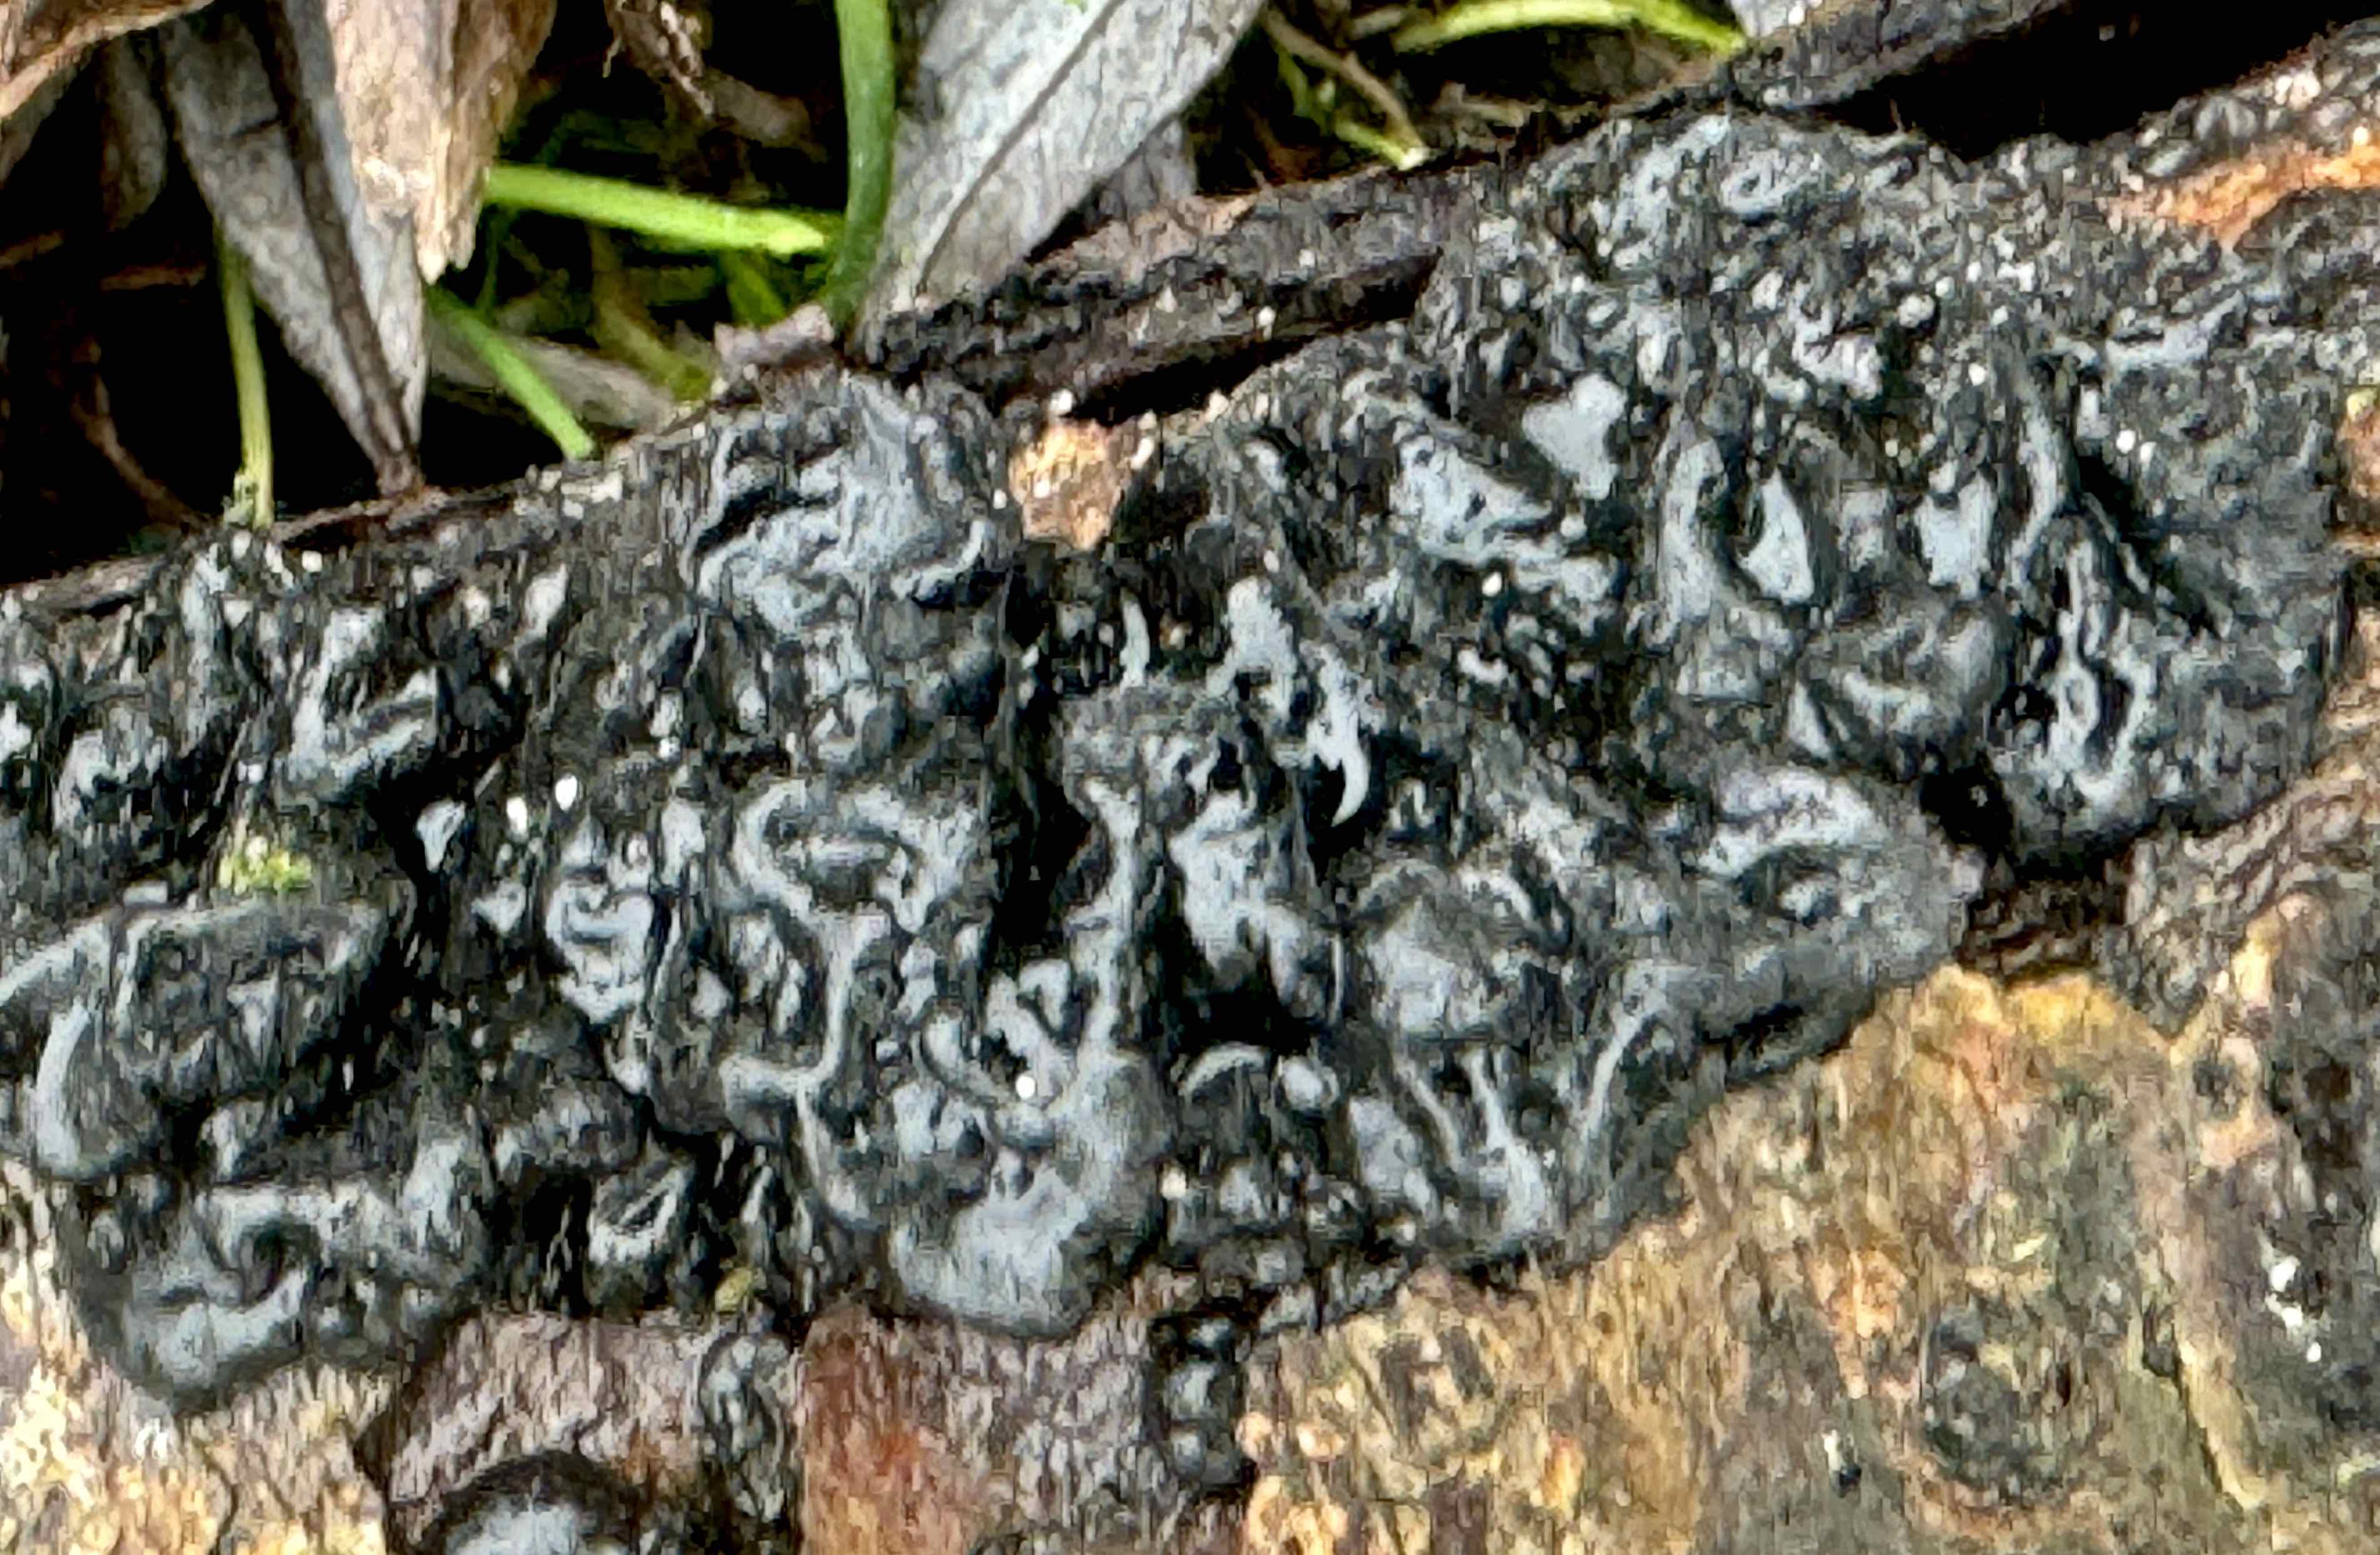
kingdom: Fungi
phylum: Basidiomycota
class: Agaricomycetes
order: Auriculariales
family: Auriculariaceae
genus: Exidia
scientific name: Exidia nigricans
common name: almindelig bævretop
